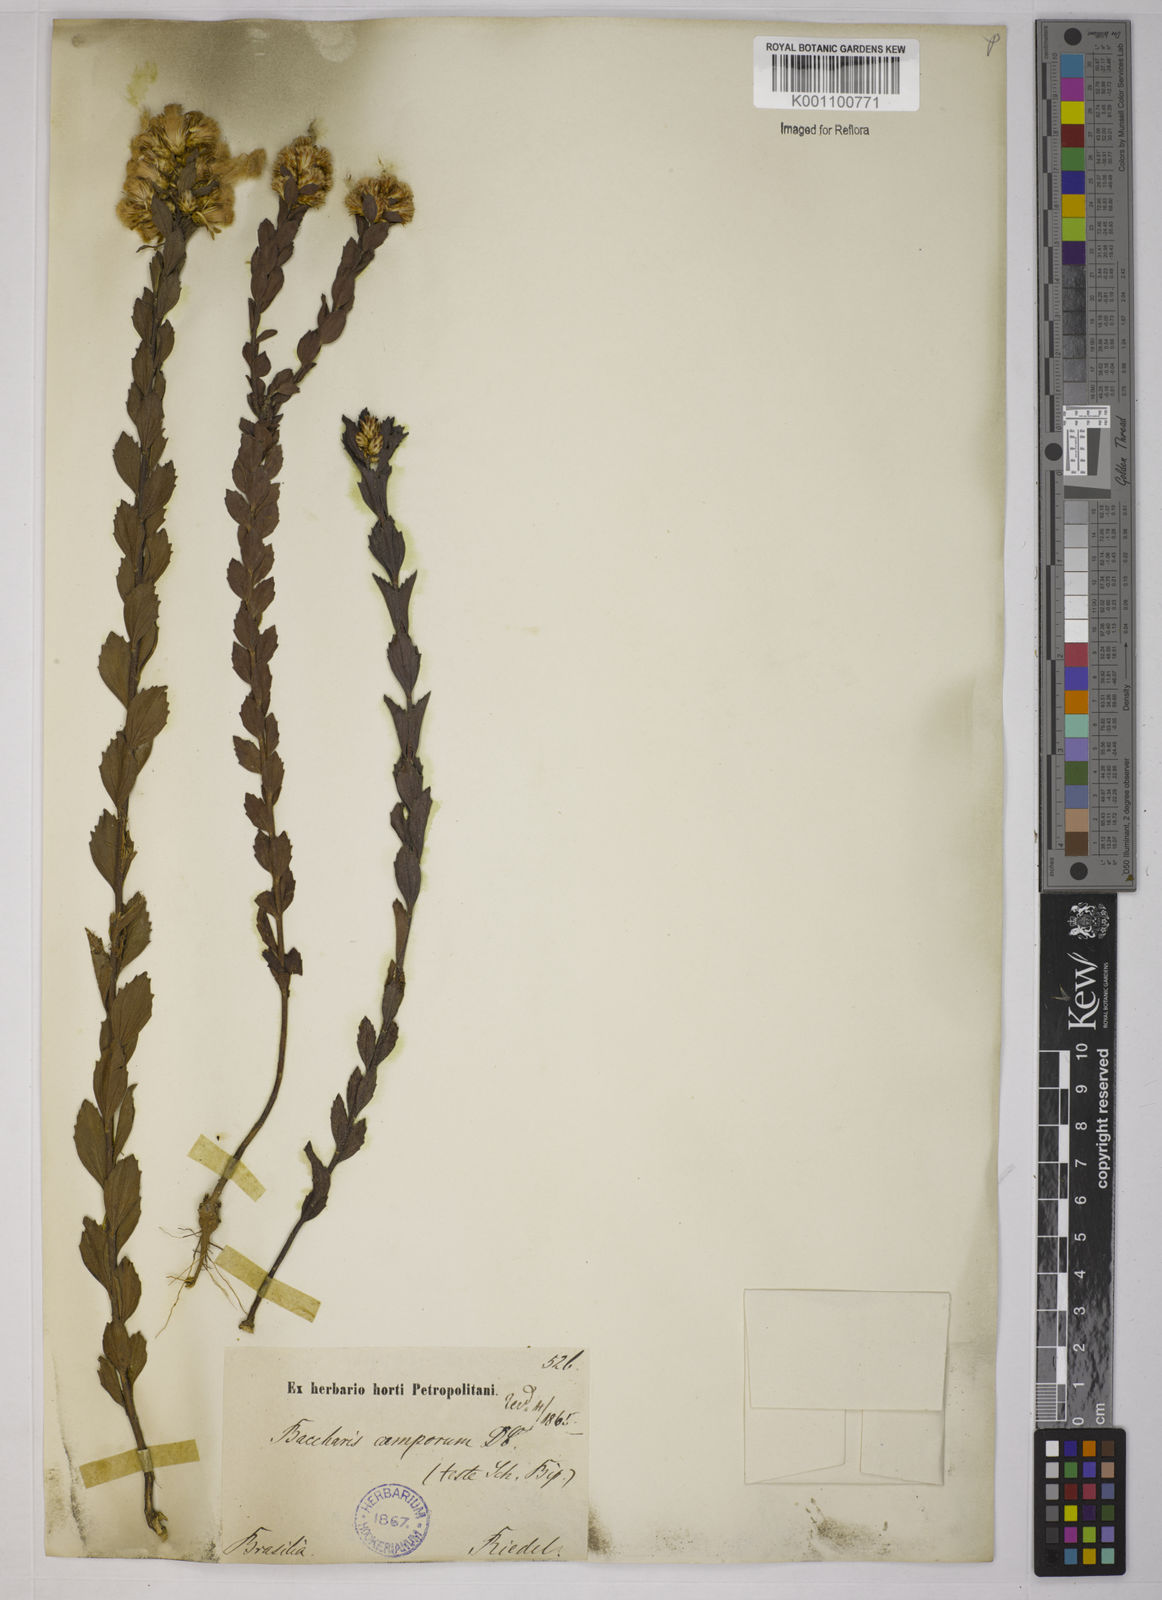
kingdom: Plantae
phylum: Tracheophyta
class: Magnoliopsida
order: Asterales
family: Asteraceae
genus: Baccharis
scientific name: Baccharis camporum
